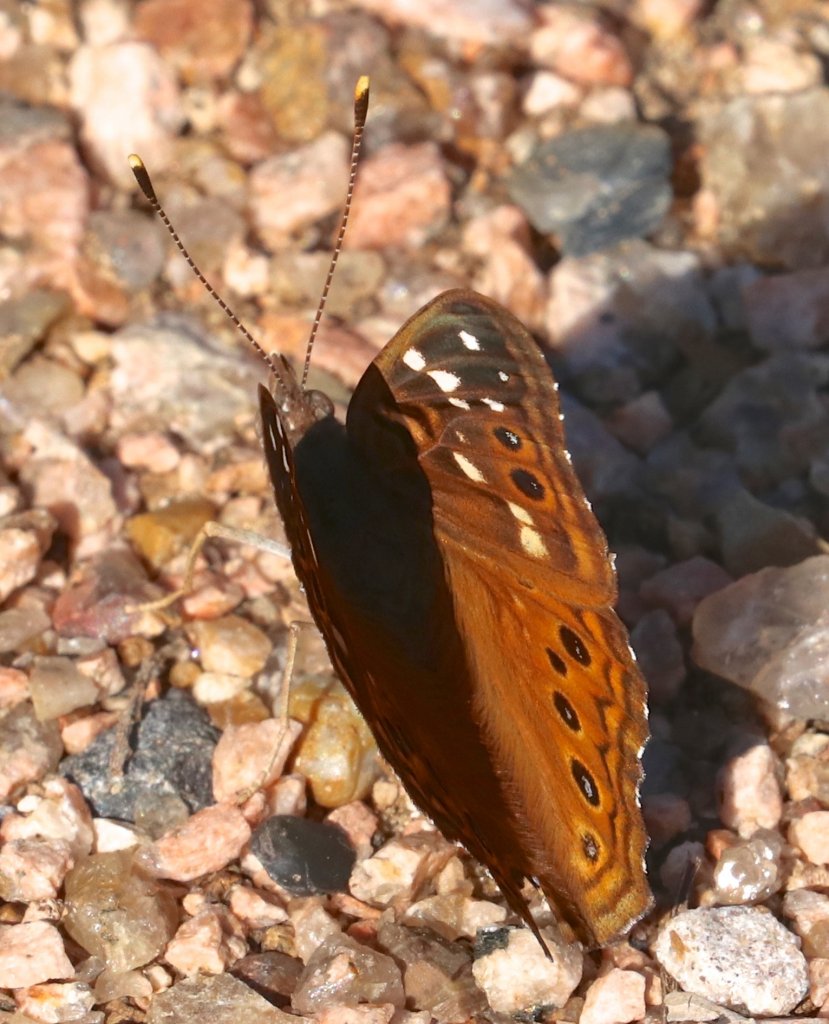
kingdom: Animalia
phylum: Arthropoda
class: Insecta
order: Lepidoptera
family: Nymphalidae
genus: Asterocampa
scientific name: Asterocampa leilia
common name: Empress Leilia
